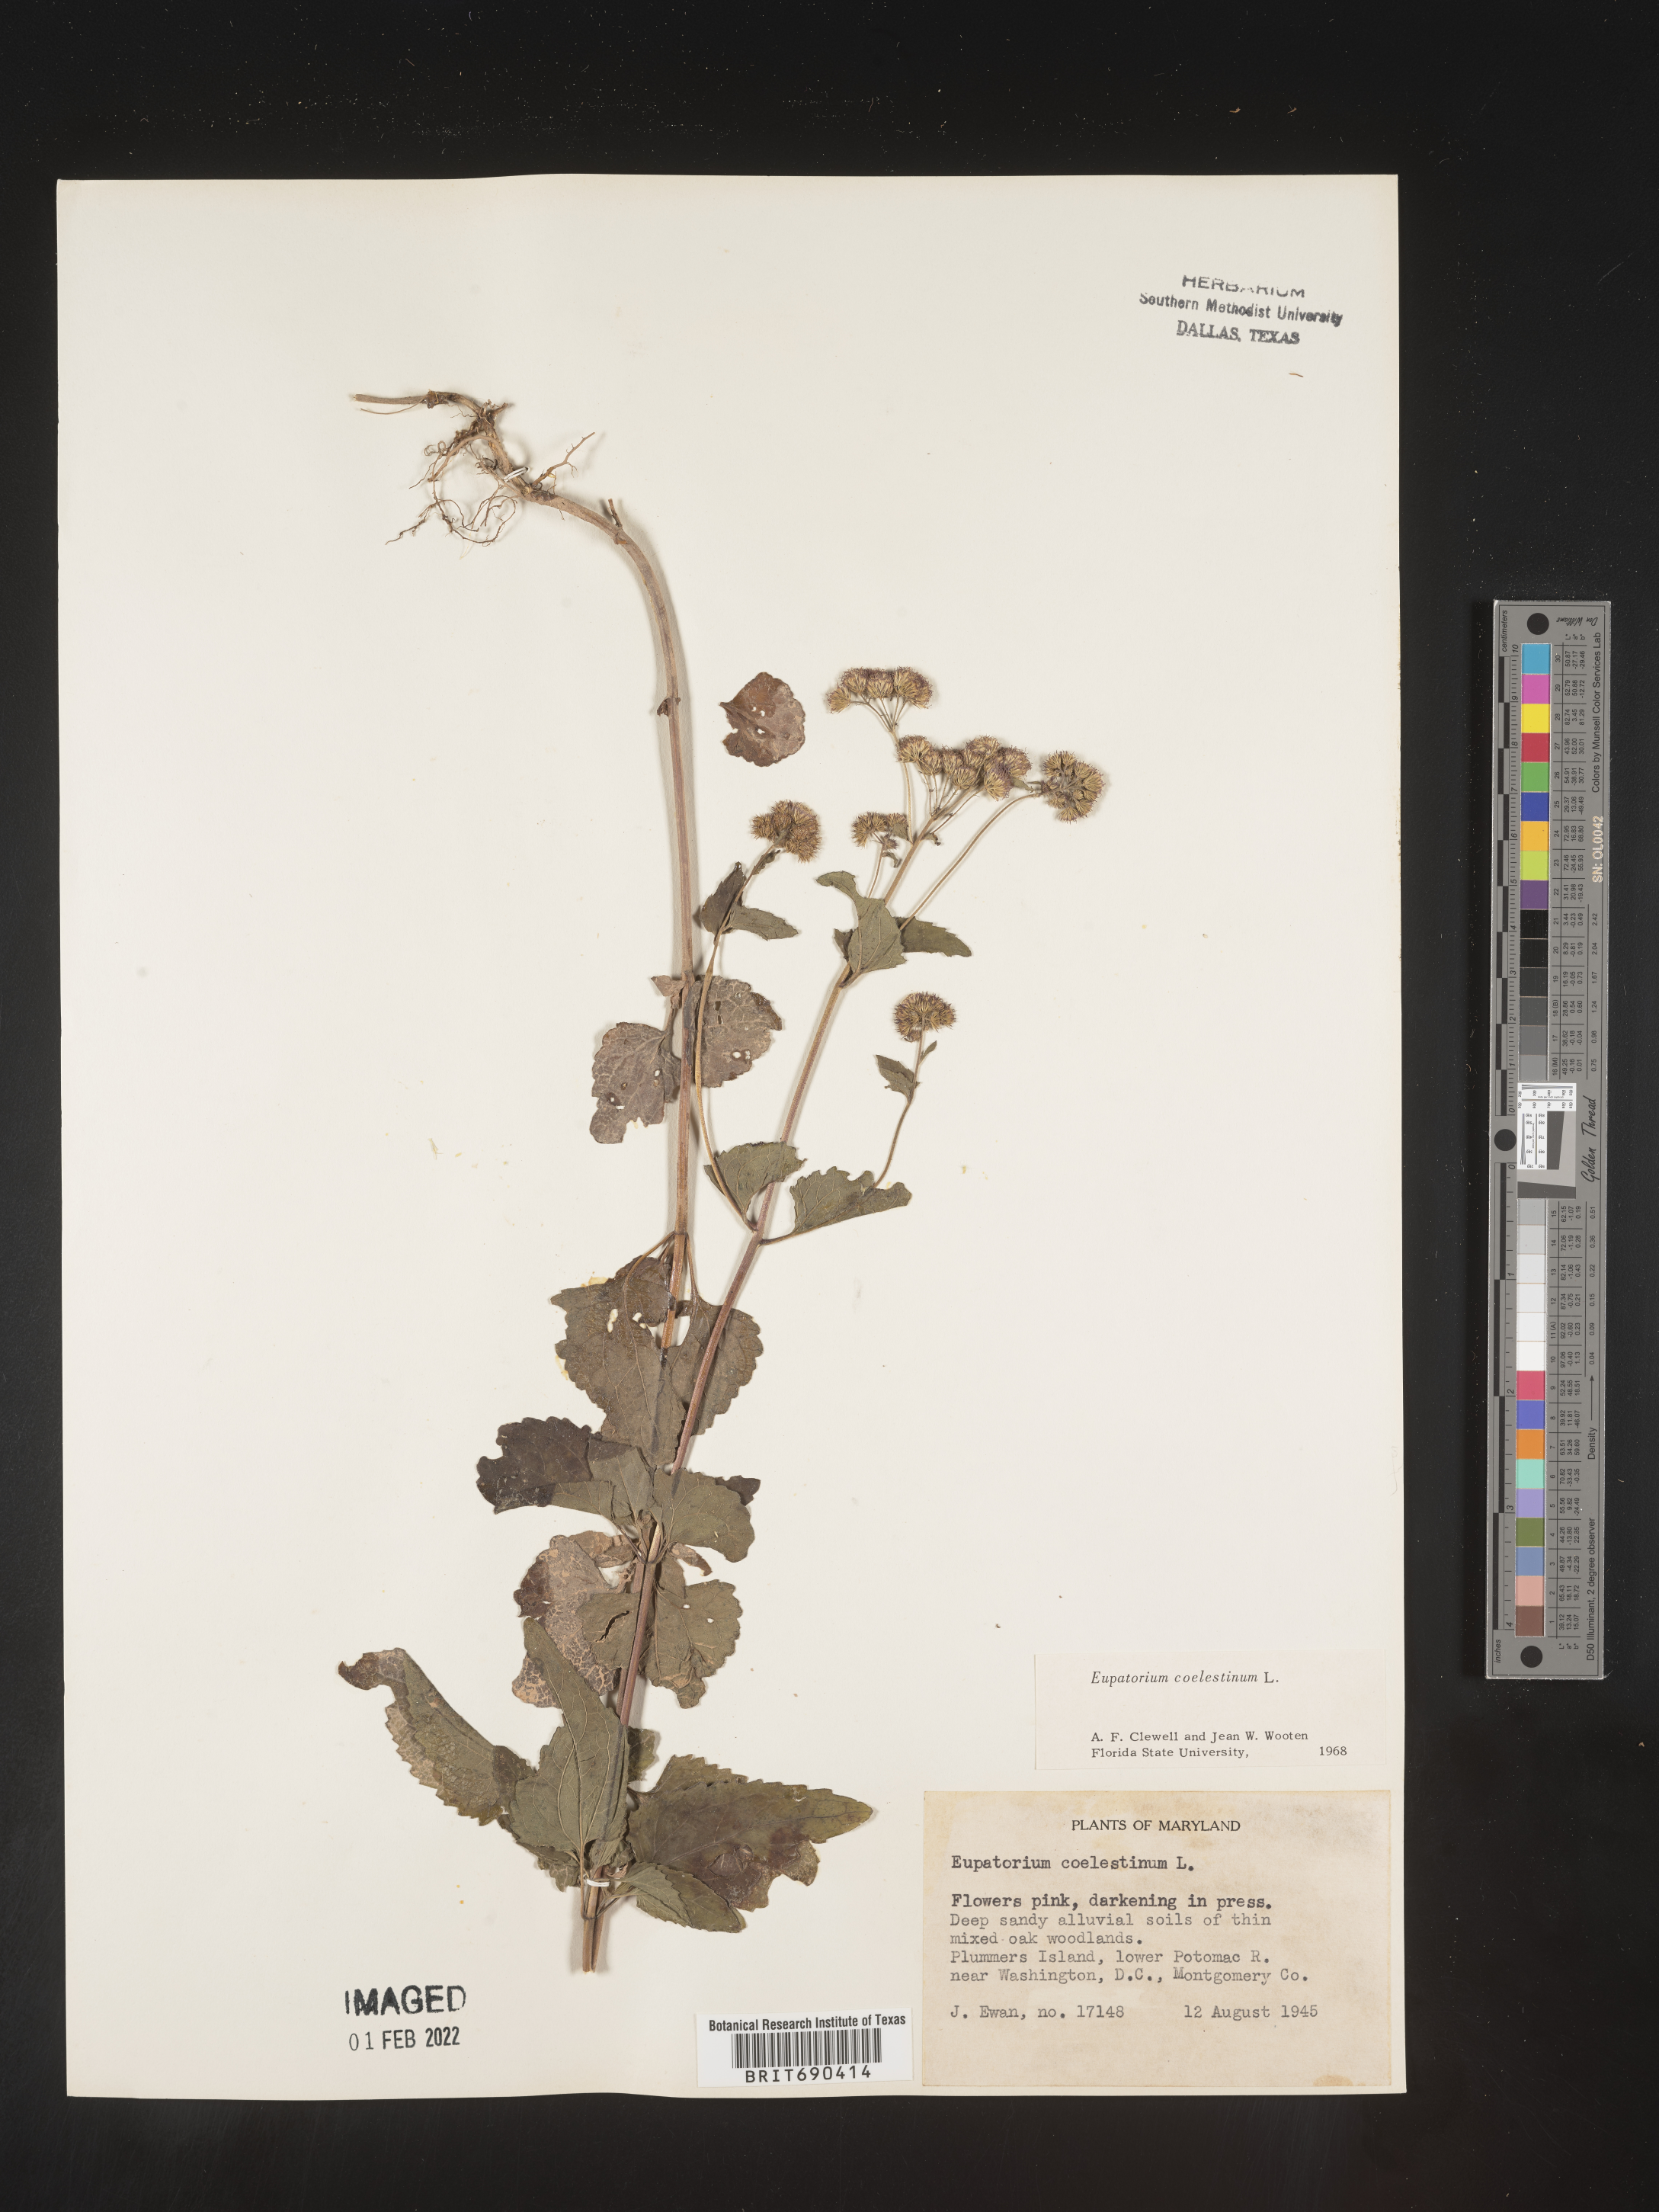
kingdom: Plantae
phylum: Tracheophyta
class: Magnoliopsida
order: Asterales
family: Asteraceae
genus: Conoclinium
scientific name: Conoclinium coelestinum
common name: Blue mistflower
